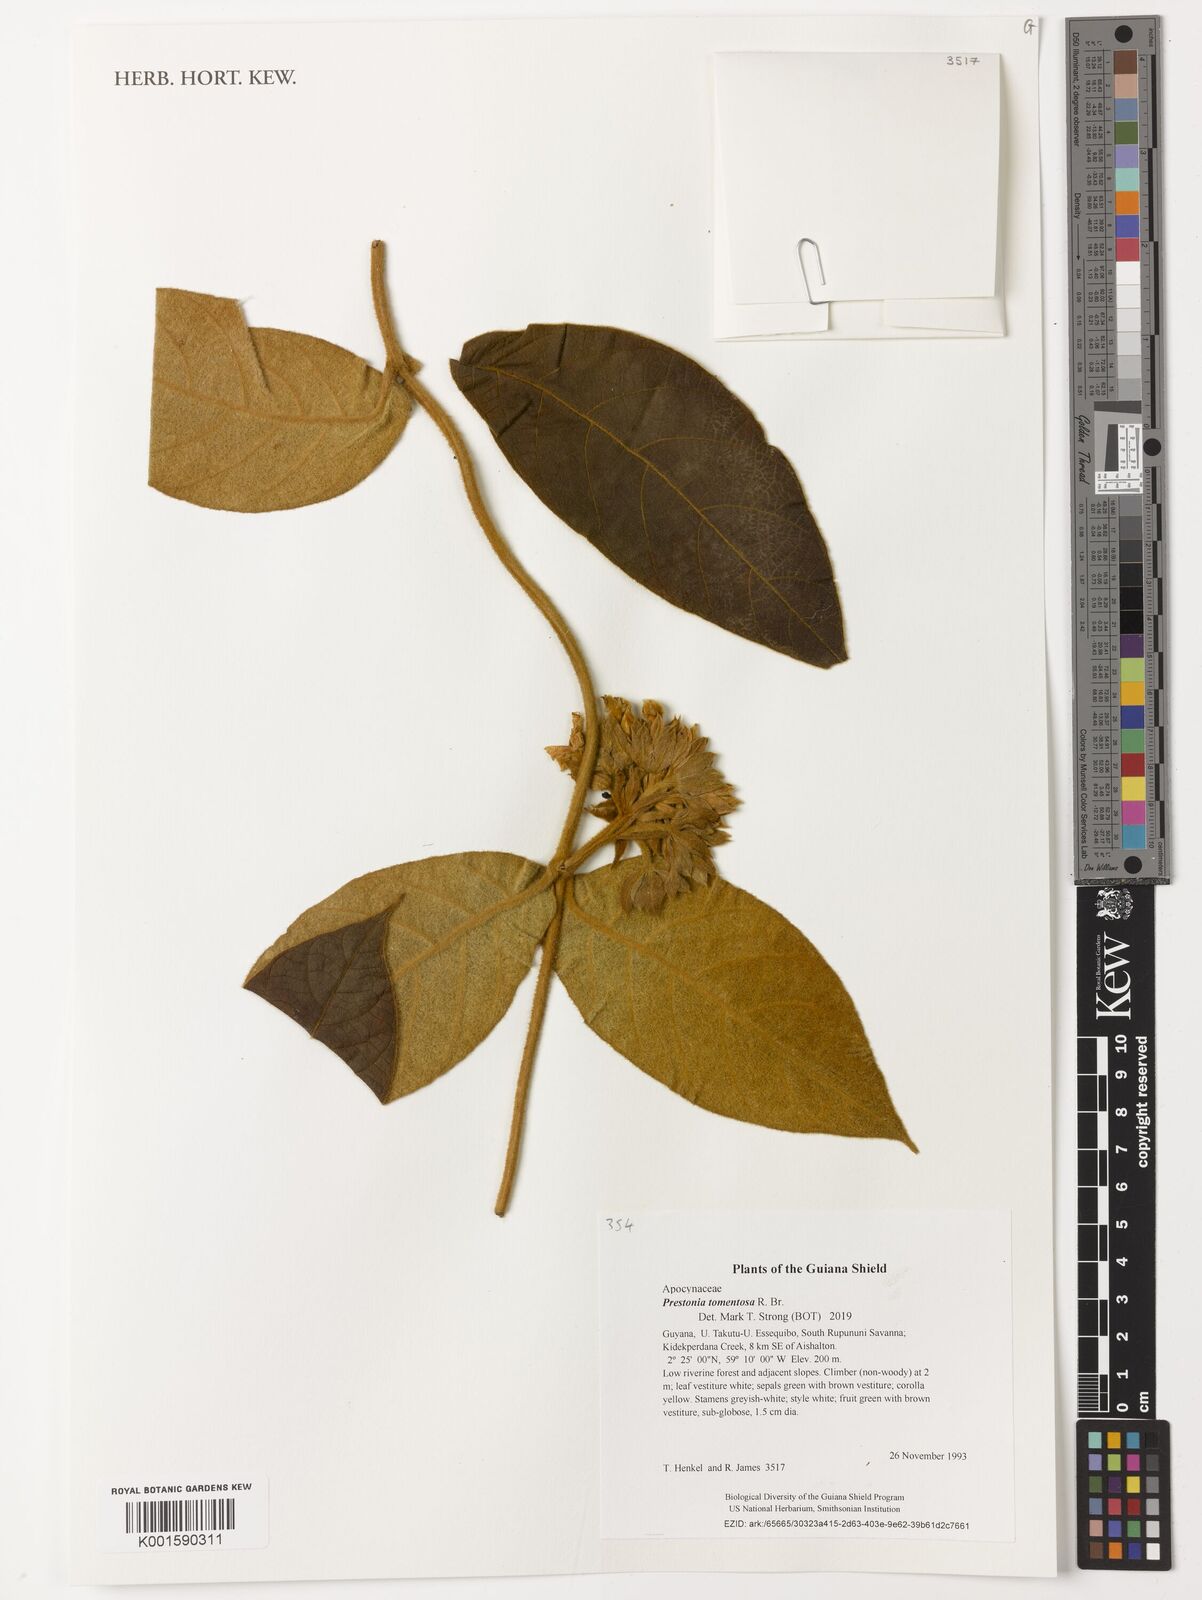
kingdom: Plantae
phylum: Tracheophyta
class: Magnoliopsida
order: Gentianales
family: Apocynaceae
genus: Prestonia
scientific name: Prestonia tomentosa
